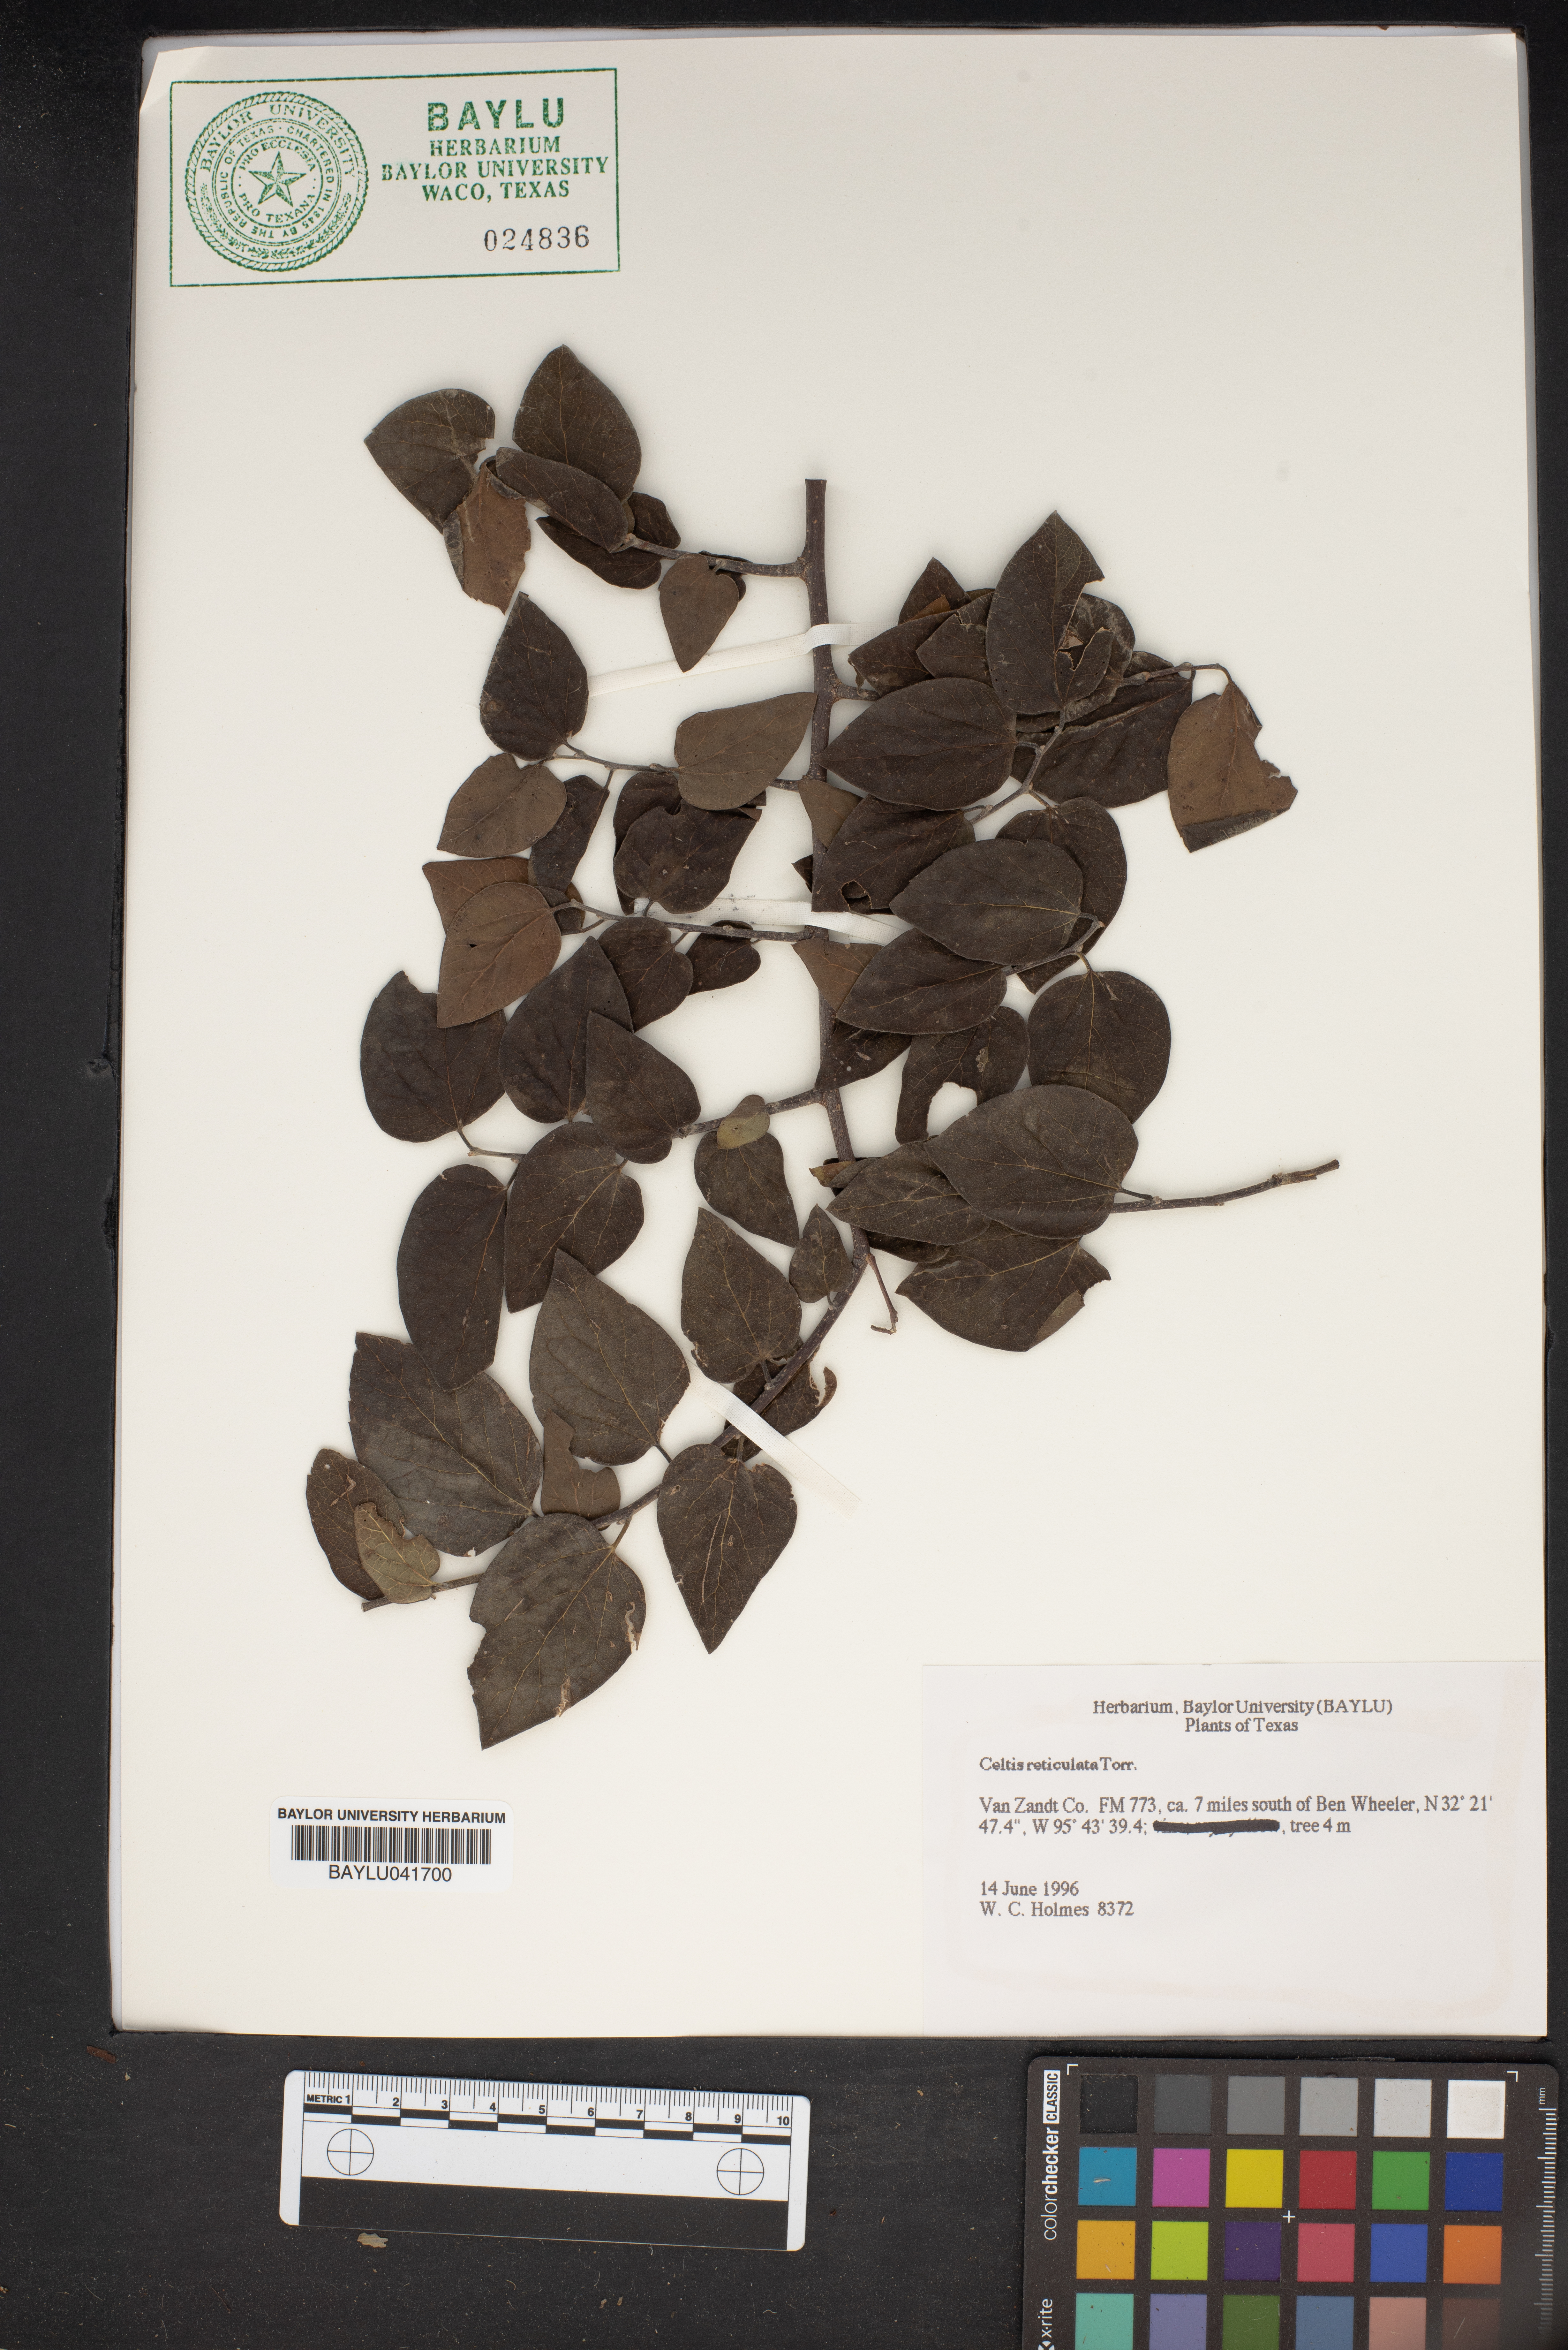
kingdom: Plantae
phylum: Tracheophyta
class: Magnoliopsida
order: Rosales
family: Cannabaceae
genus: Celtis
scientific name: Celtis reticulata
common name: Netleaf hackberry
